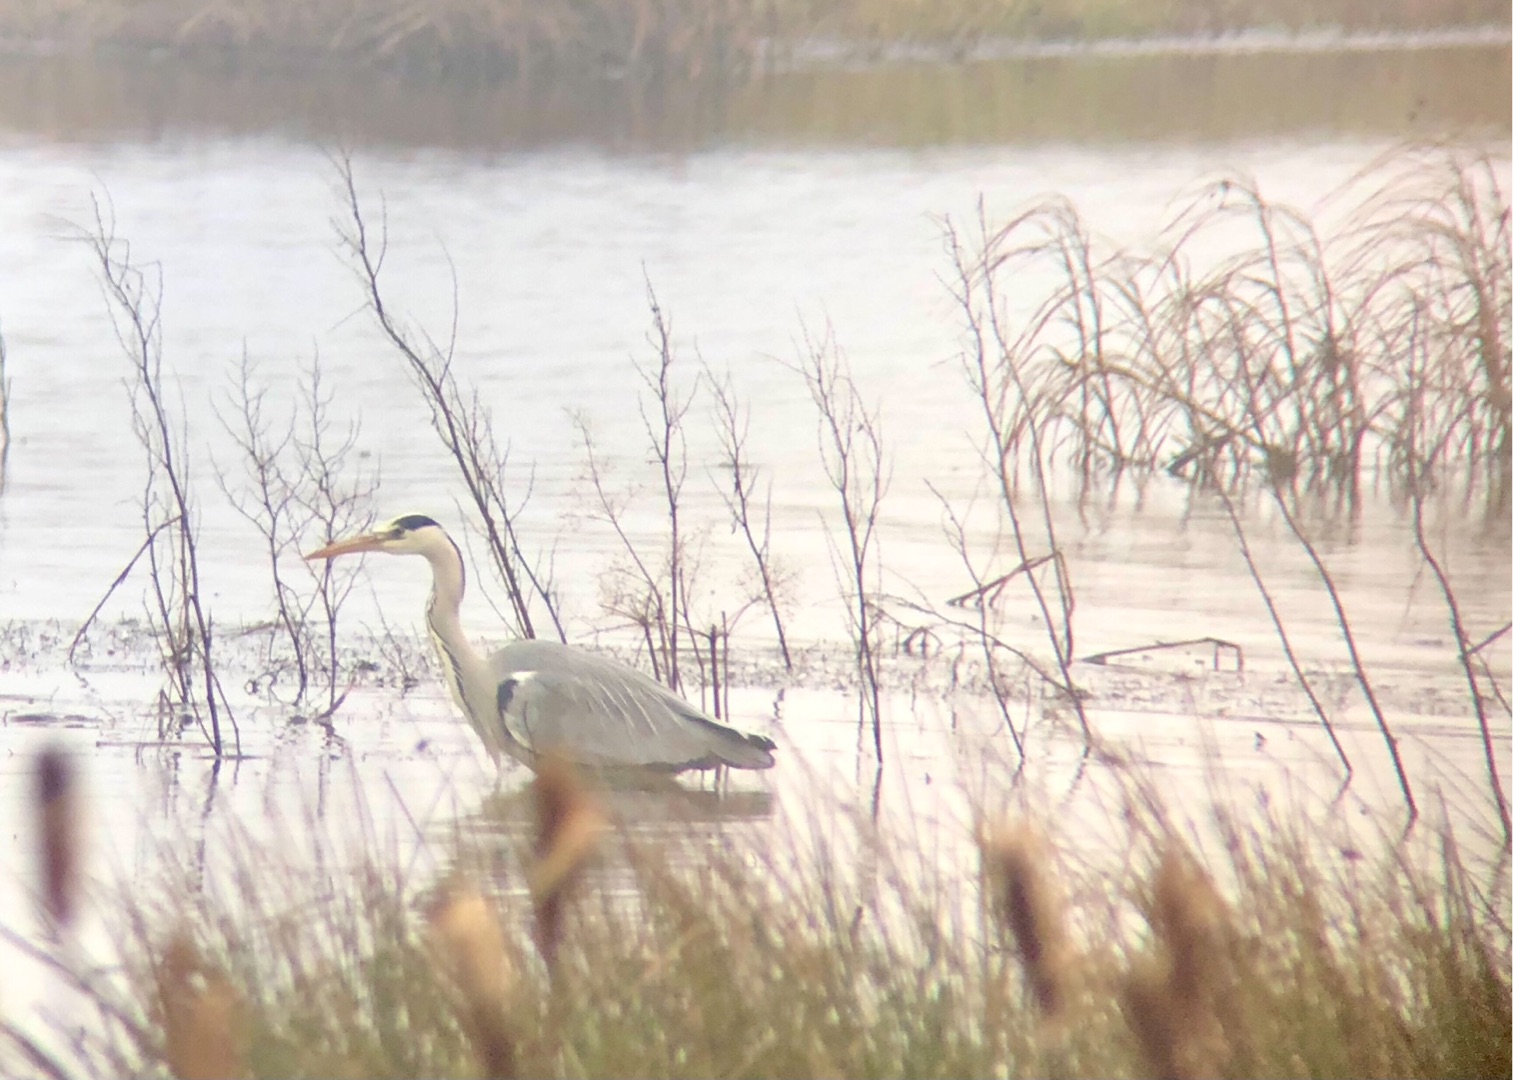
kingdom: Animalia
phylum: Chordata
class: Aves
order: Pelecaniformes
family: Ardeidae
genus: Ardea
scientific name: Ardea cinerea
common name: Fiskehejre
